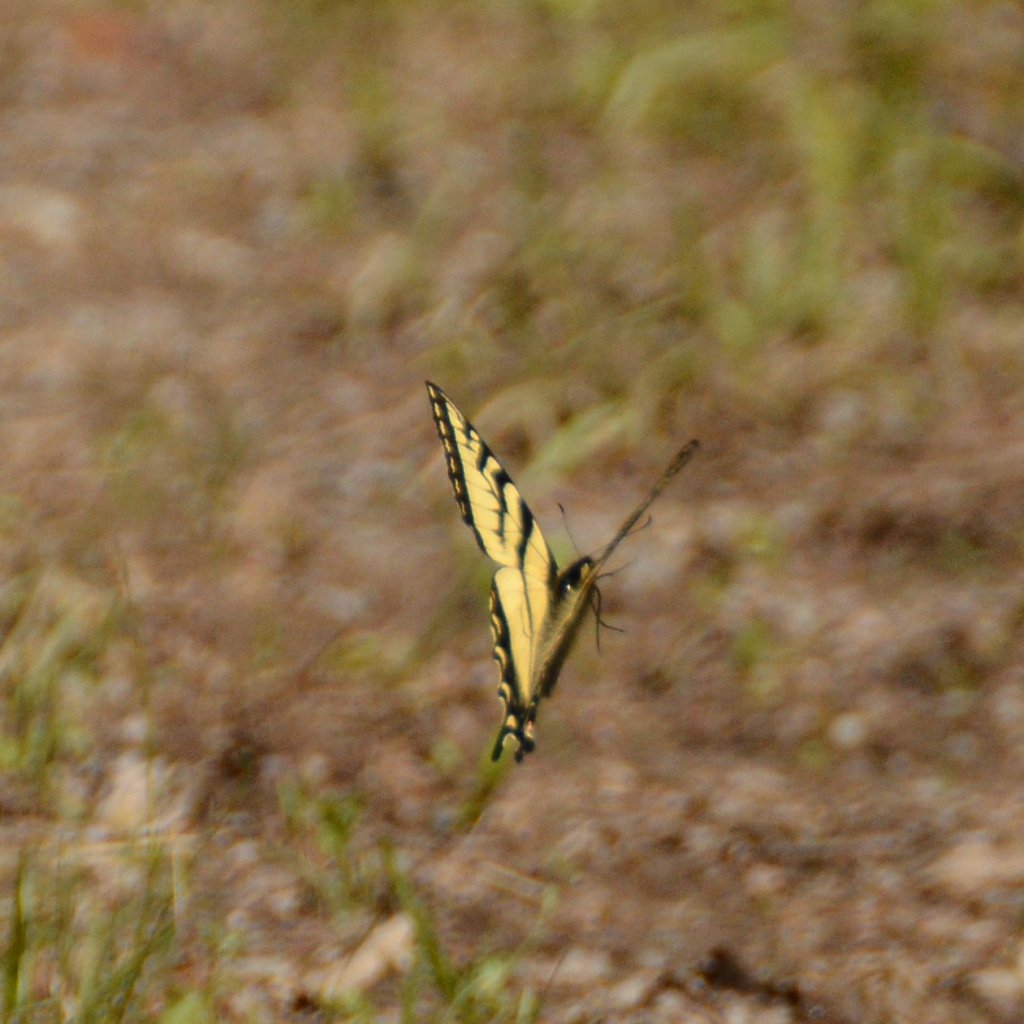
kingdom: Animalia
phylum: Arthropoda
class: Insecta
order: Lepidoptera
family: Papilionidae
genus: Pterourus
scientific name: Pterourus canadensis
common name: Canadian Tiger Swallowtail
